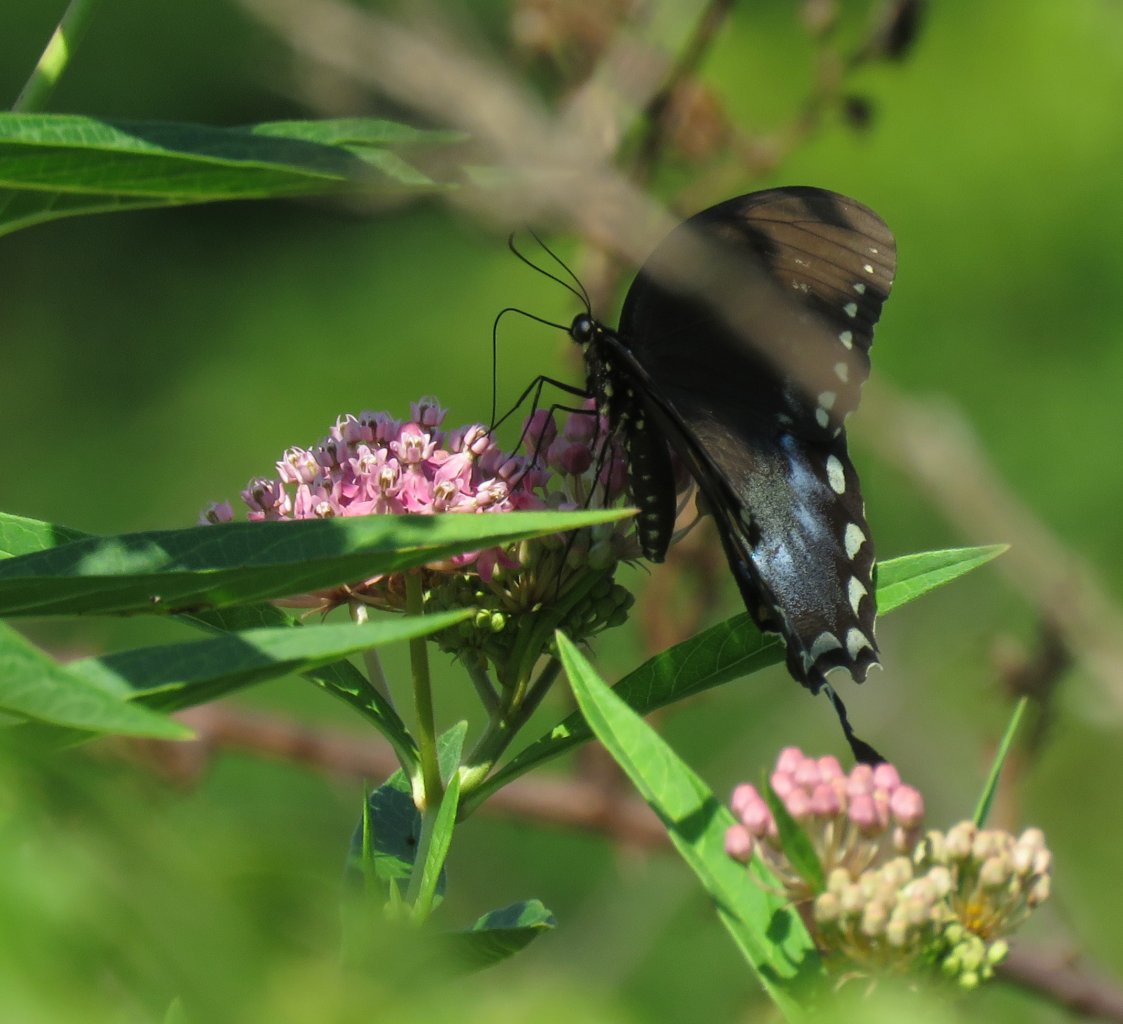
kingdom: Animalia
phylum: Arthropoda
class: Insecta
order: Lepidoptera
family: Papilionidae
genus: Pterourus
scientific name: Pterourus troilus
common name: Spicebush Swallowtail
